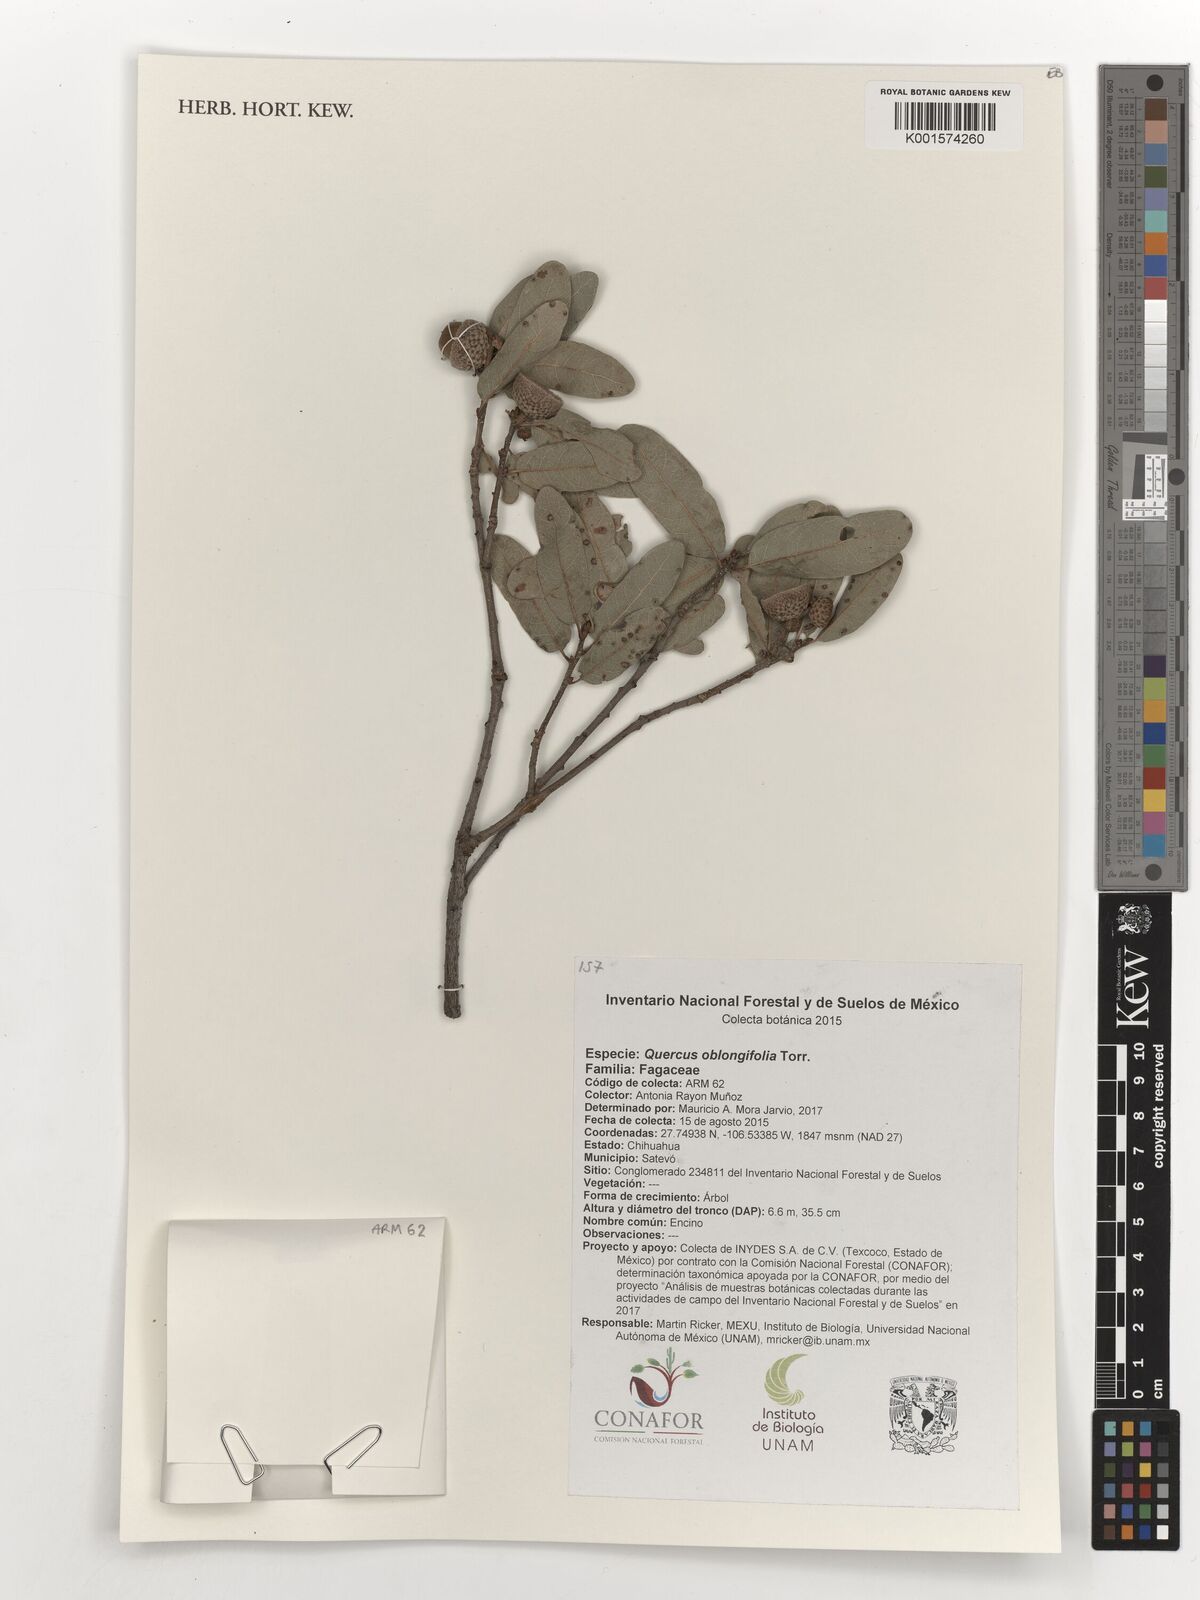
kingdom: Plantae
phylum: Tracheophyta
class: Magnoliopsida
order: Fagales
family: Fagaceae
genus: Quercus
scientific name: Quercus oblongifolia
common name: Mexican blue oak
